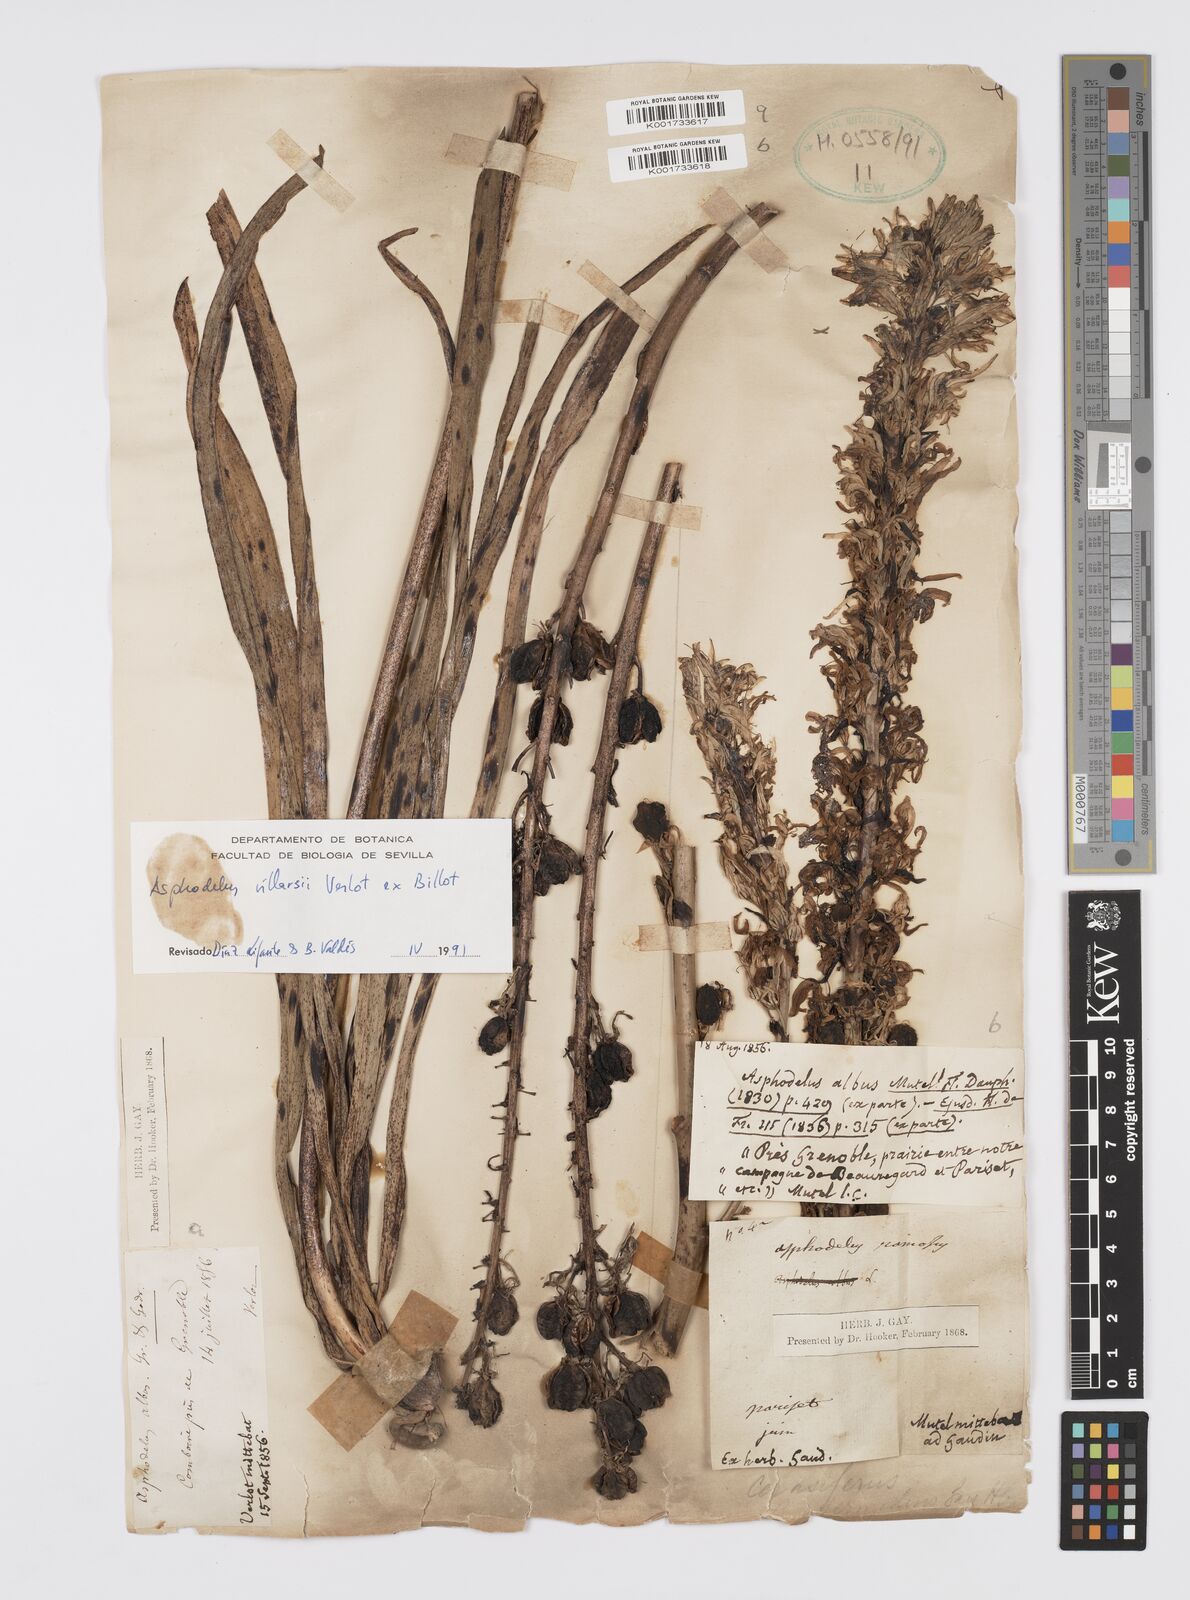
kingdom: Plantae
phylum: Tracheophyta
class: Liliopsida
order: Asparagales
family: Asphodelaceae
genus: Asphodelus
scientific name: Asphodelus cerasifer
